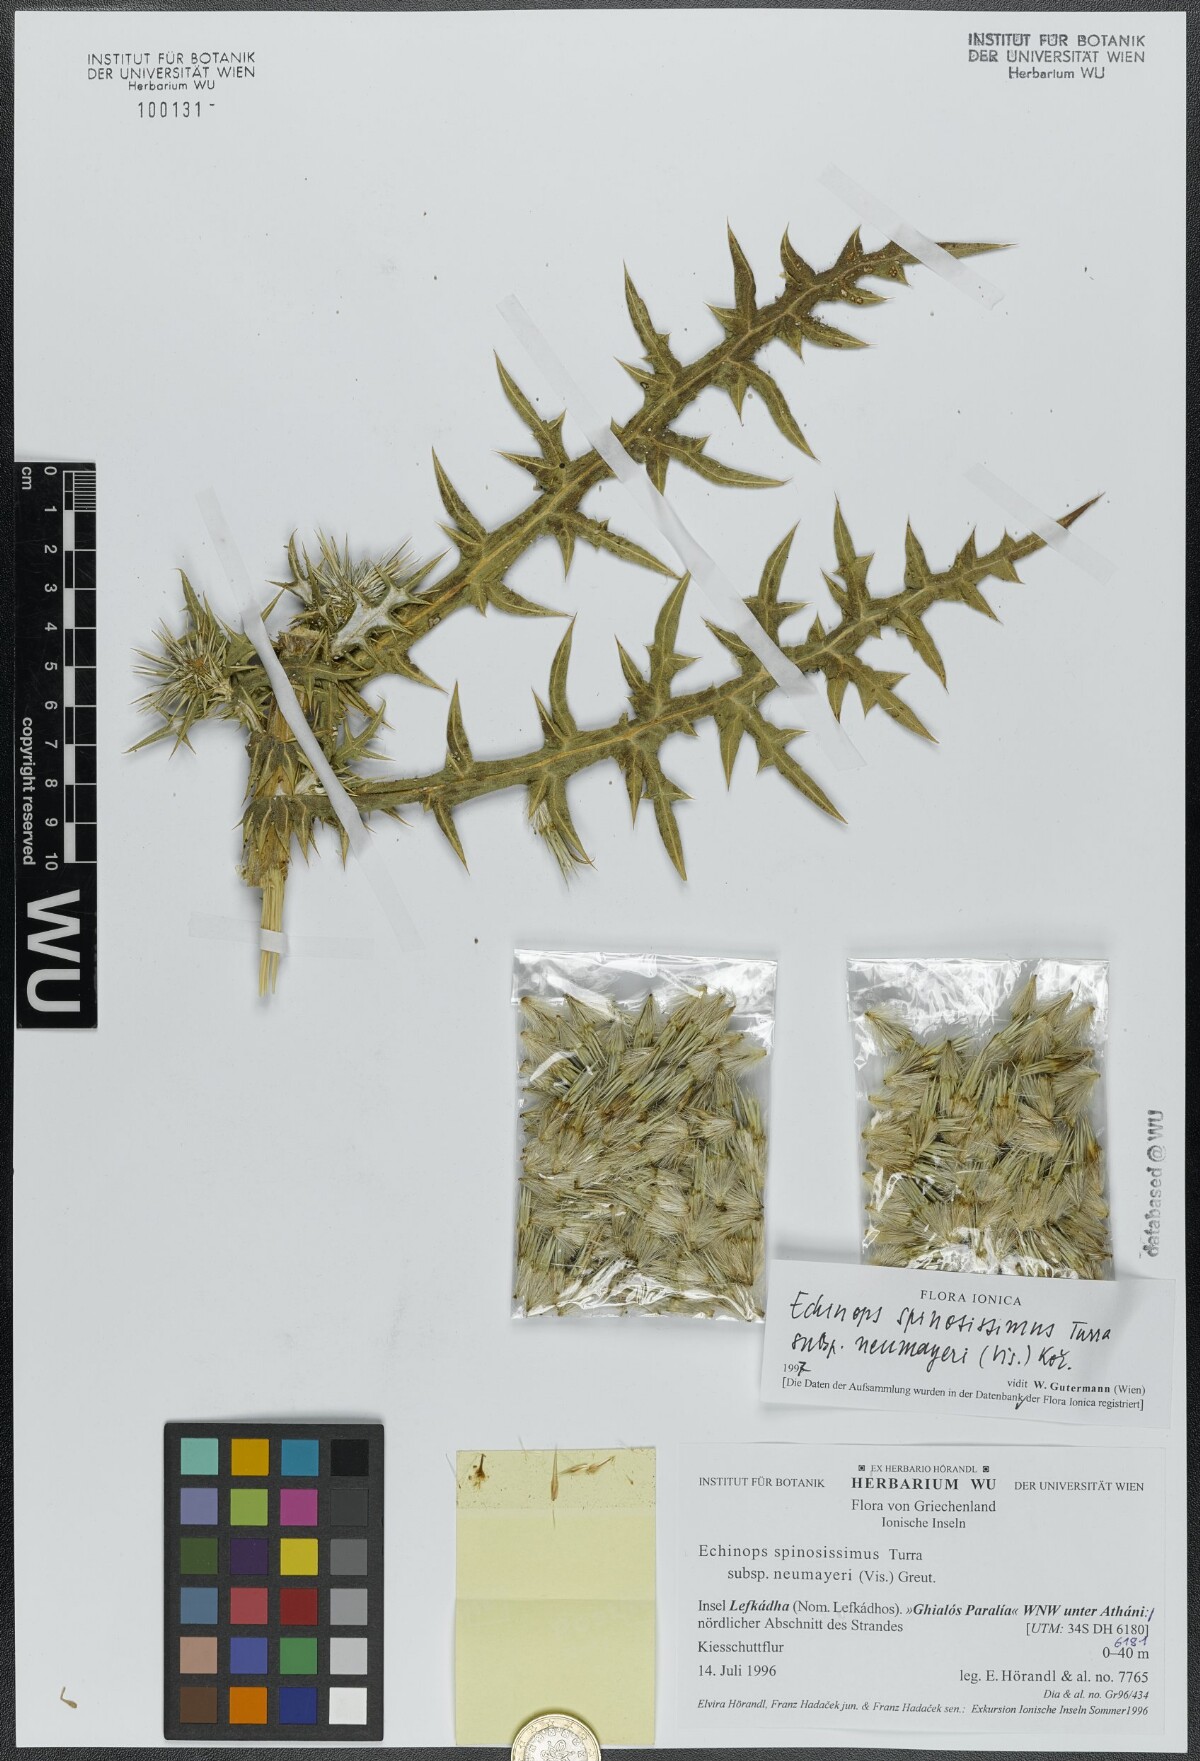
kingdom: Plantae
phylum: Tracheophyta
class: Magnoliopsida
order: Asterales
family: Asteraceae
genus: Echinops
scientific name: Echinops spinosissimus
